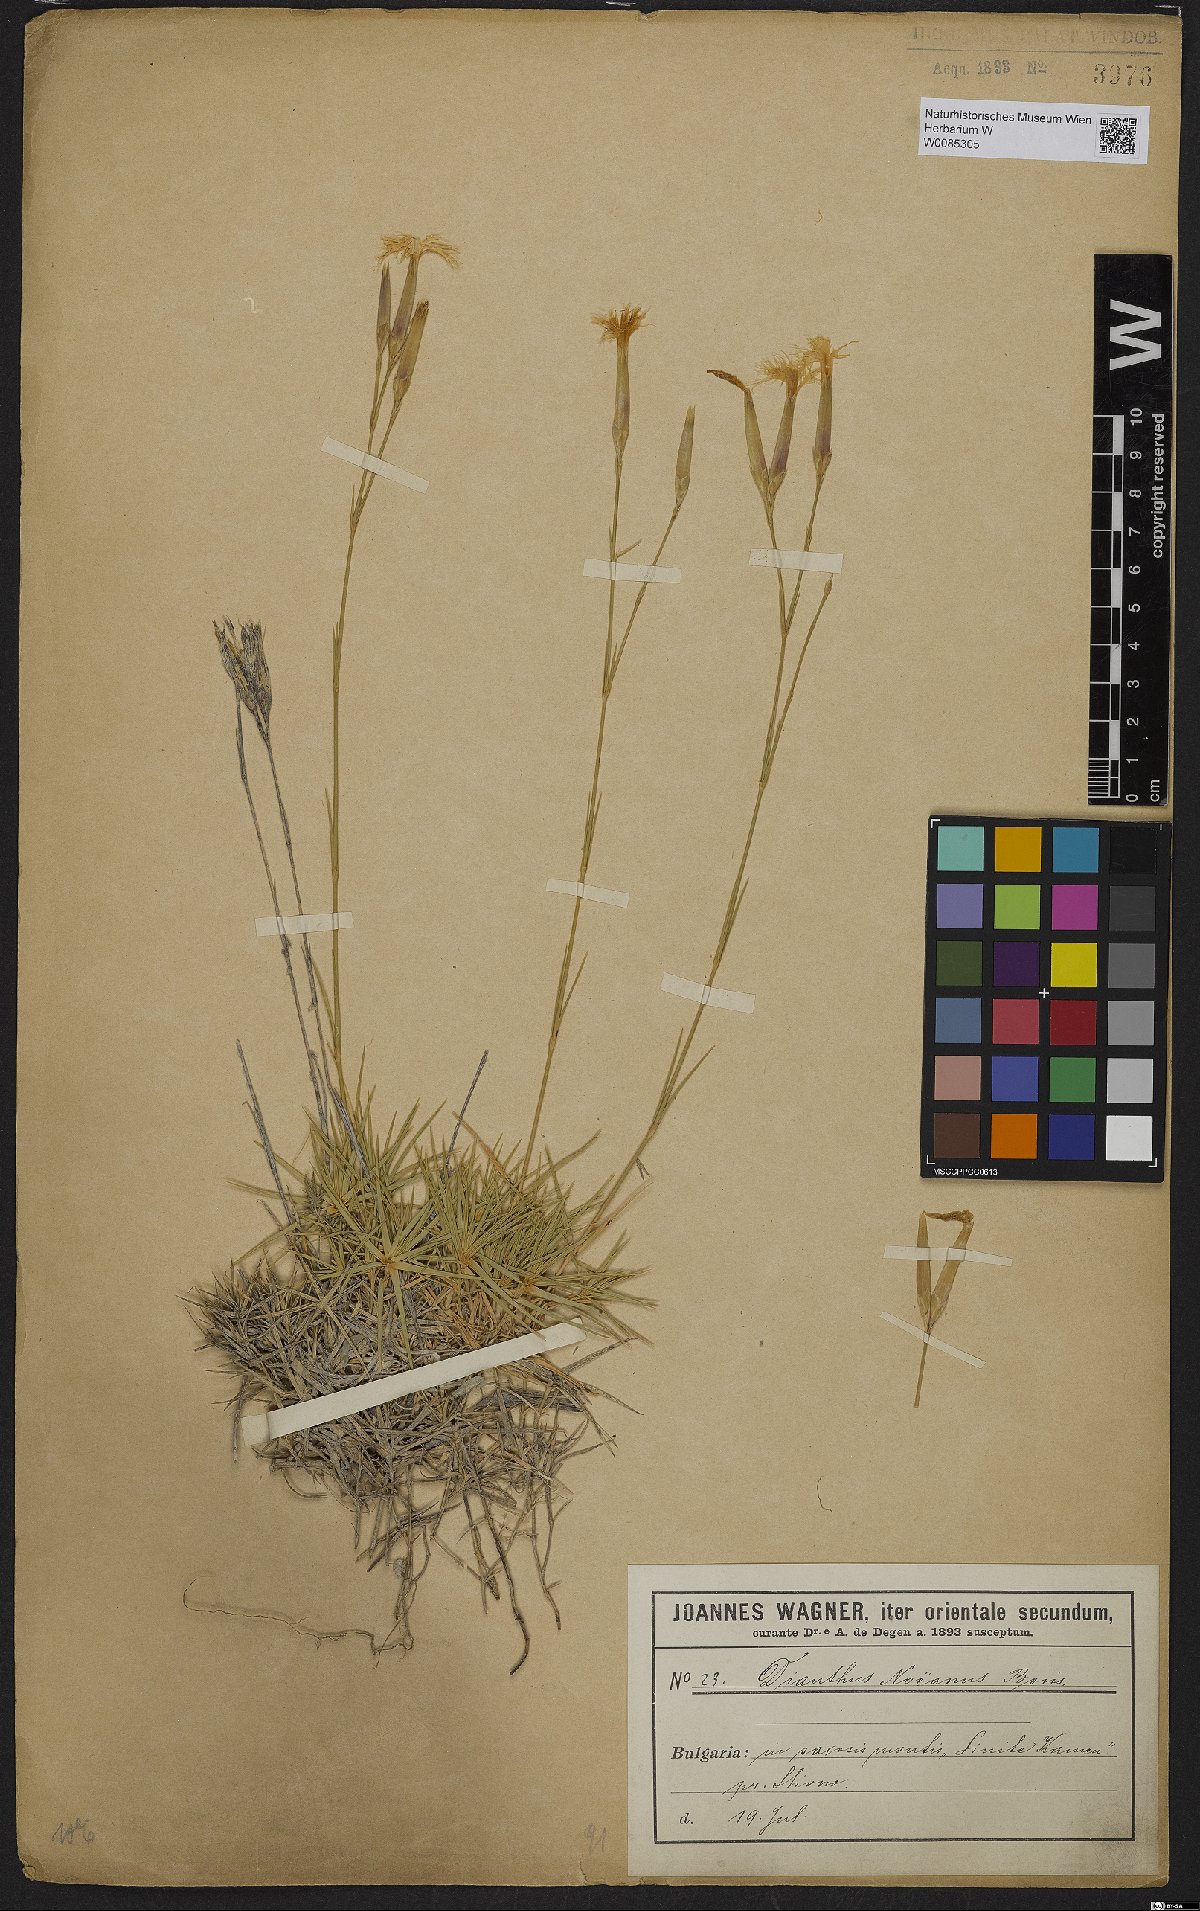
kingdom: Plantae
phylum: Tracheophyta
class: Magnoliopsida
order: Caryophyllales
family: Caryophyllaceae
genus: Dianthus
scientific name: Dianthus petraeus
